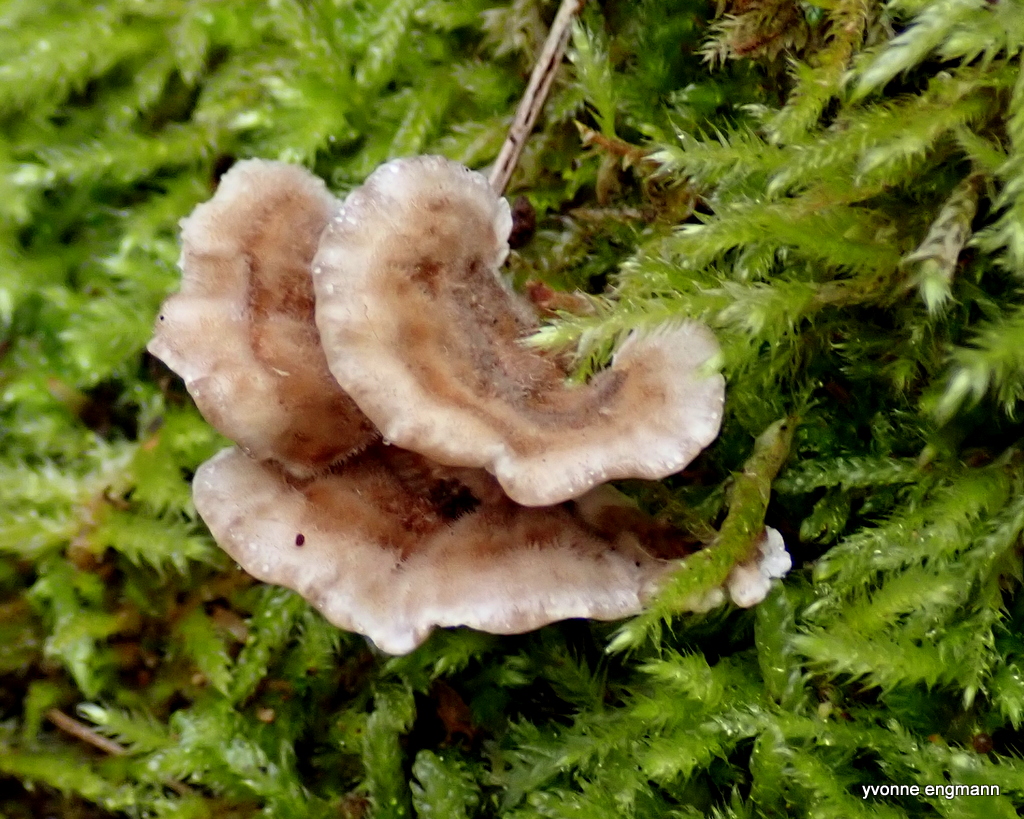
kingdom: Fungi
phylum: Basidiomycota
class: Agaricomycetes
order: Polyporales
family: Polyporaceae
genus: Trametes
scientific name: Trametes
